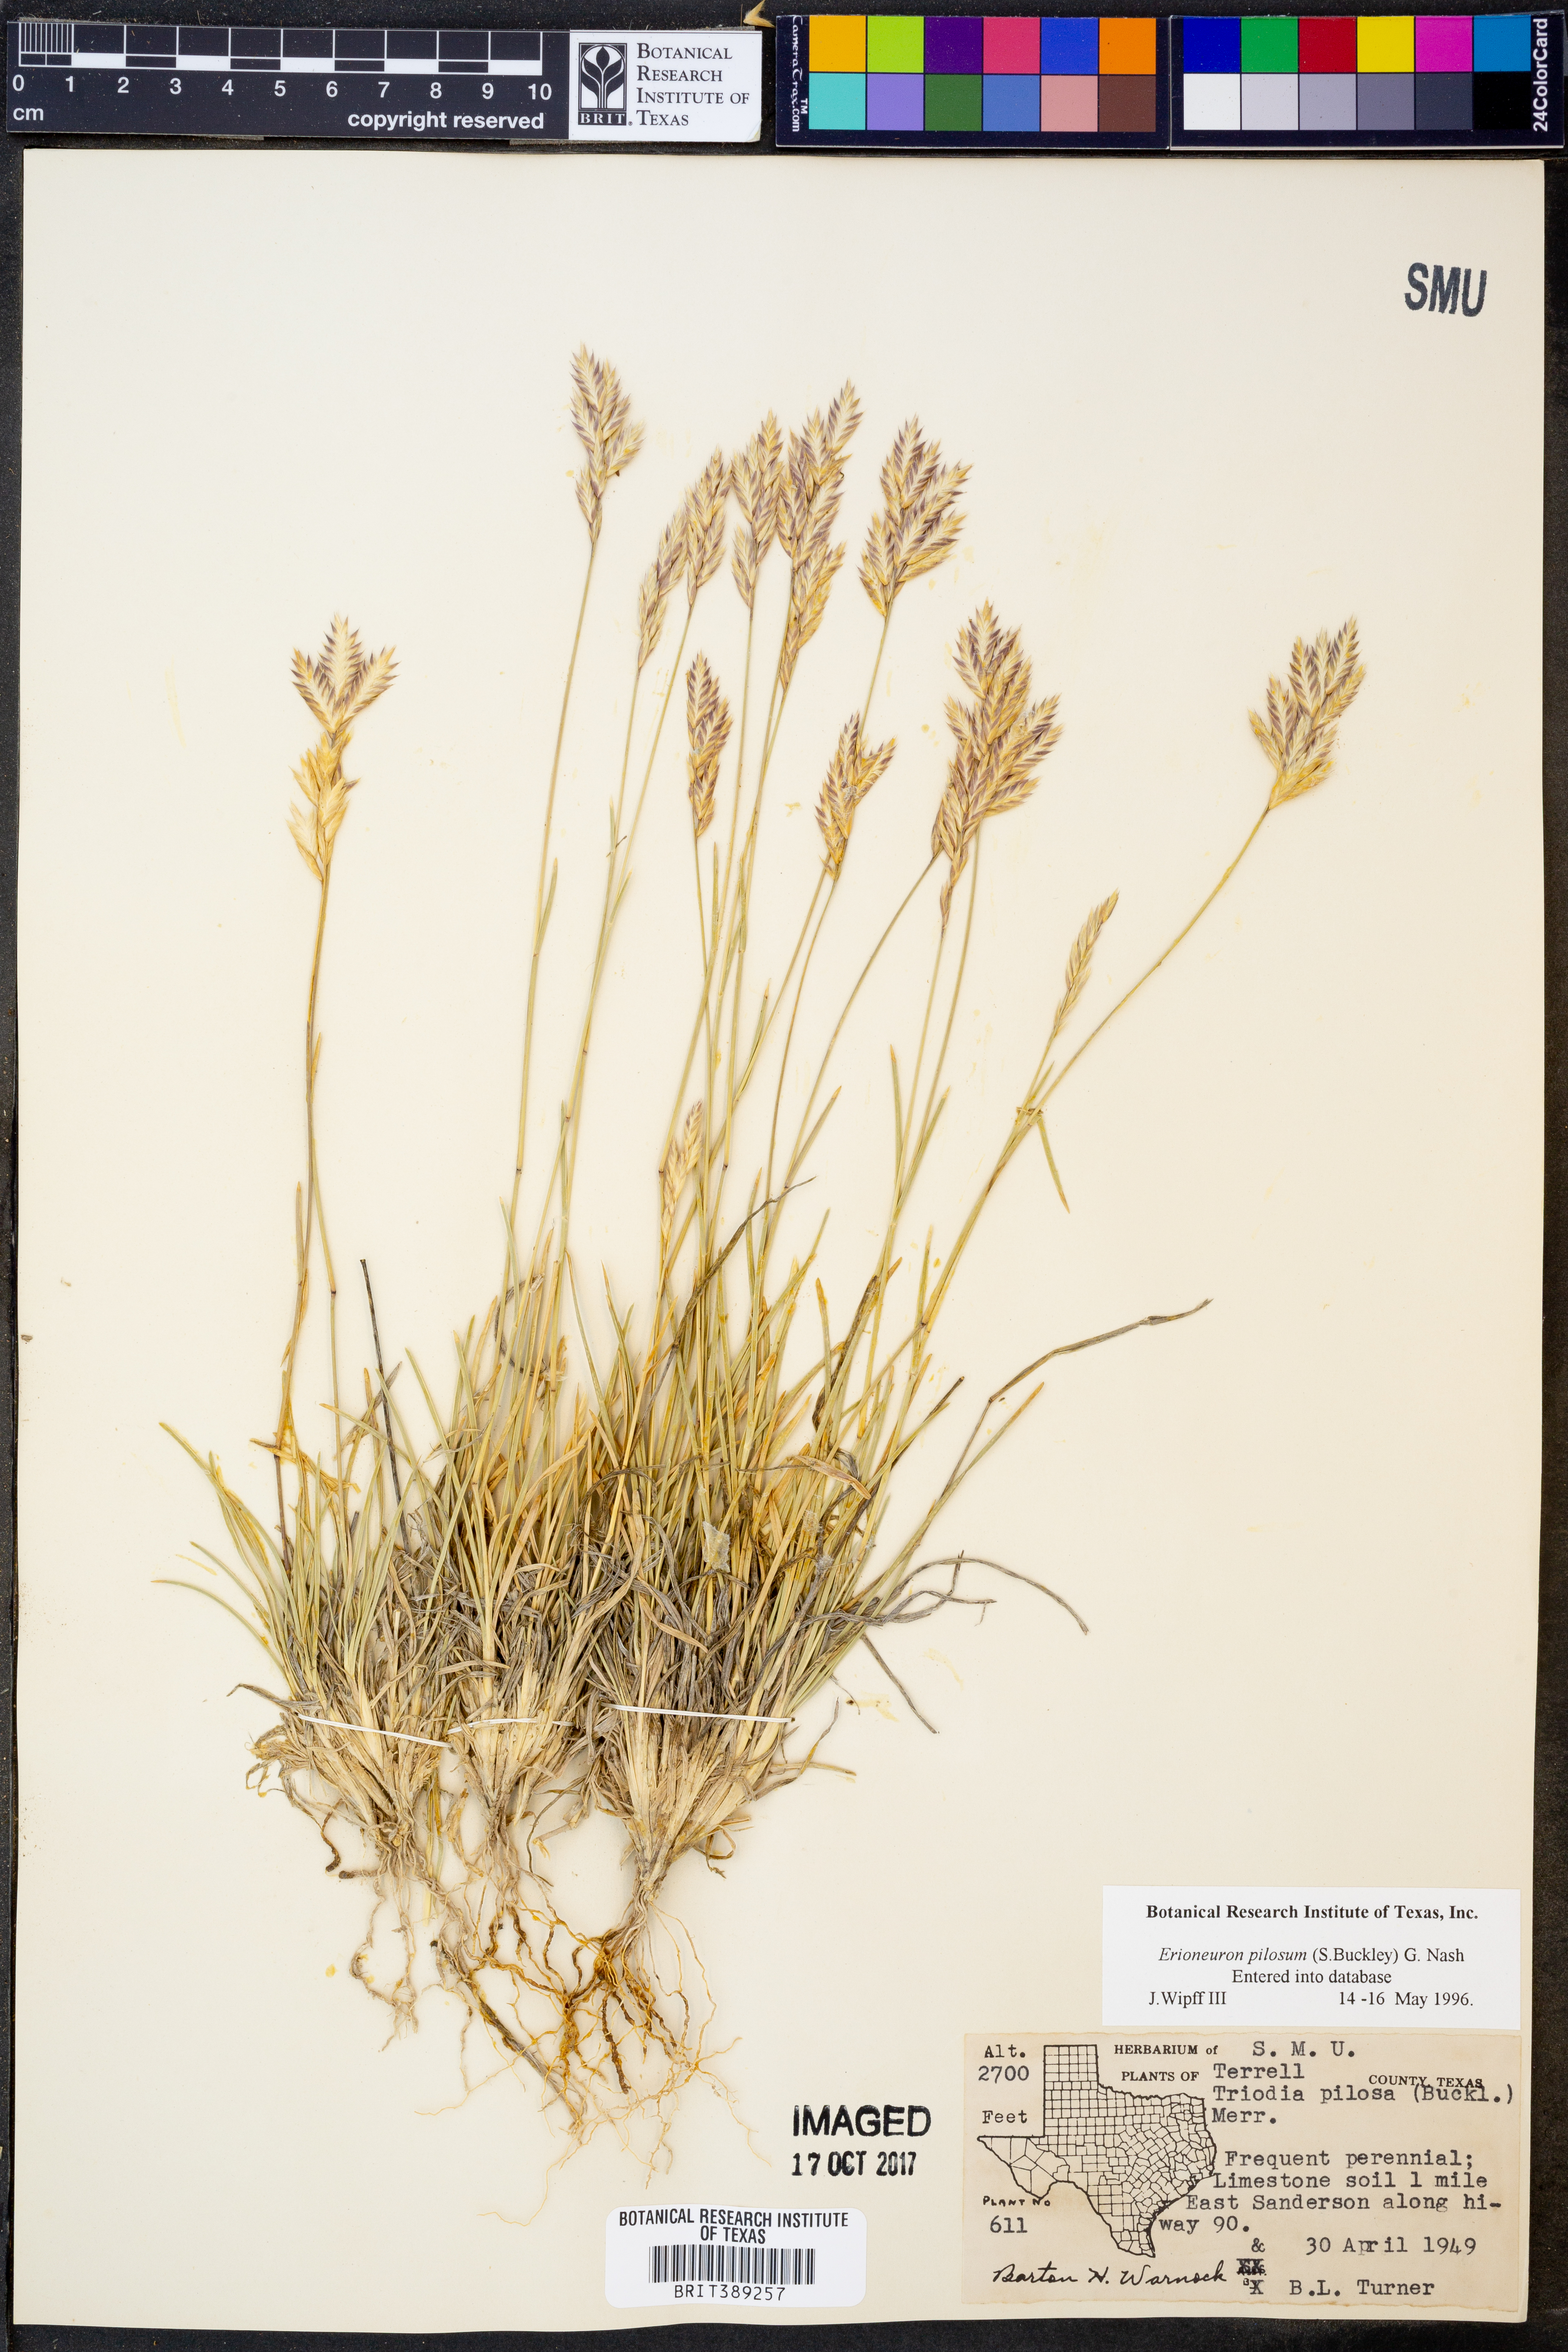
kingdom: Plantae
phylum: Tracheophyta
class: Liliopsida
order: Poales
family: Poaceae
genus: Erioneuron
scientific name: Erioneuron pilosum
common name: Hairy woolly grass
